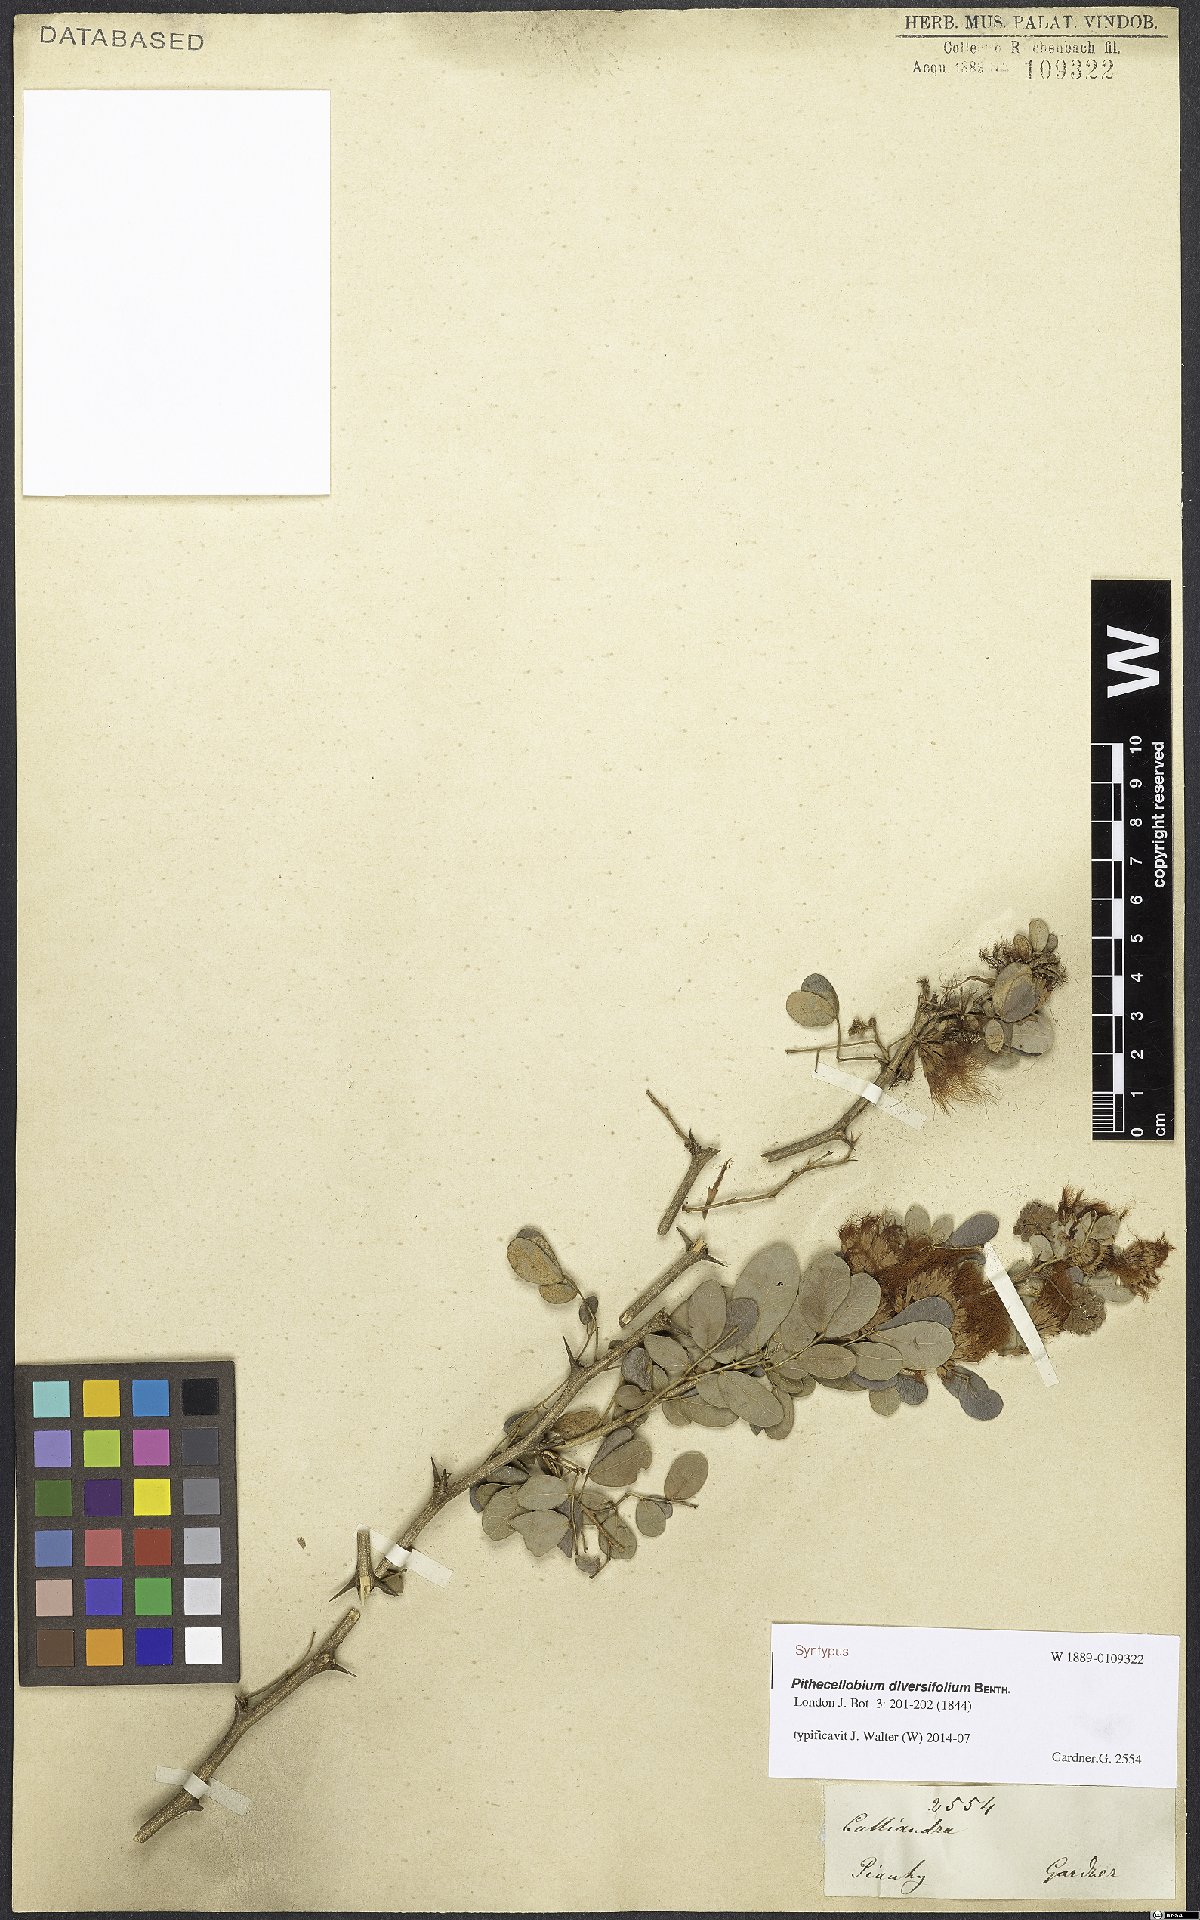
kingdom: Plantae
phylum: Tracheophyta
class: Magnoliopsida
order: Fabales
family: Fabaceae
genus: Pithecellobium
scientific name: Pithecellobium diversifolium
